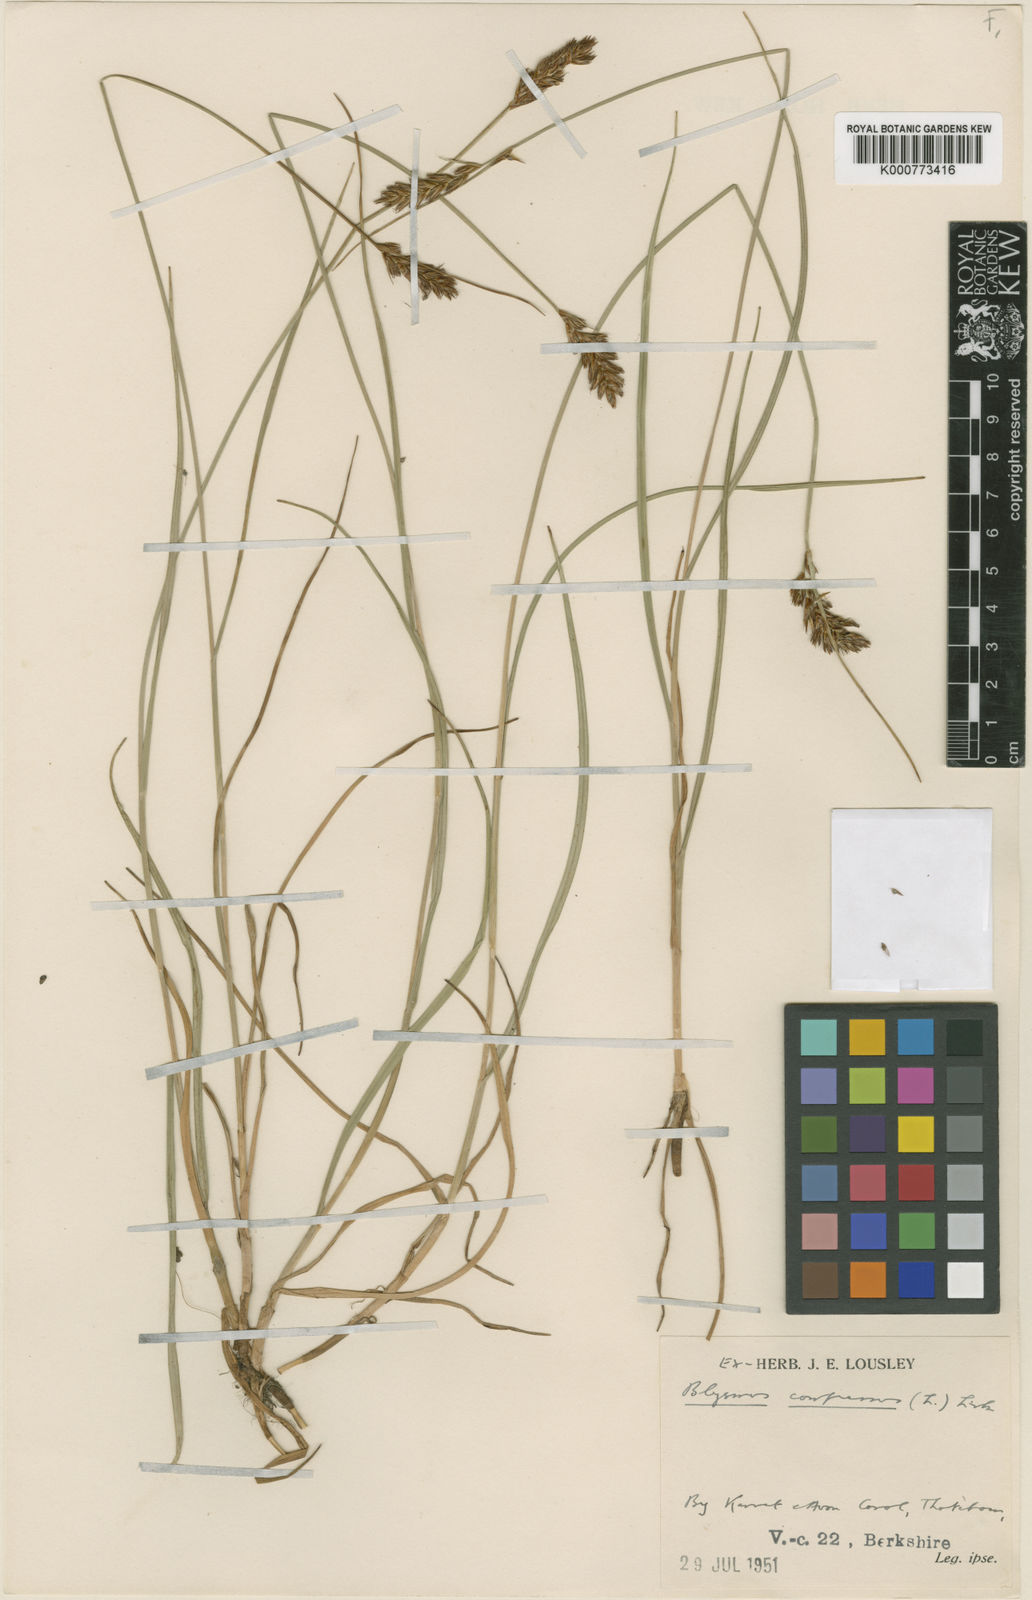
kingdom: Plantae
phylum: Tracheophyta
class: Liliopsida
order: Poales
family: Cyperaceae
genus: Blysmus
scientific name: Blysmus compressus
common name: Flat-sedge
